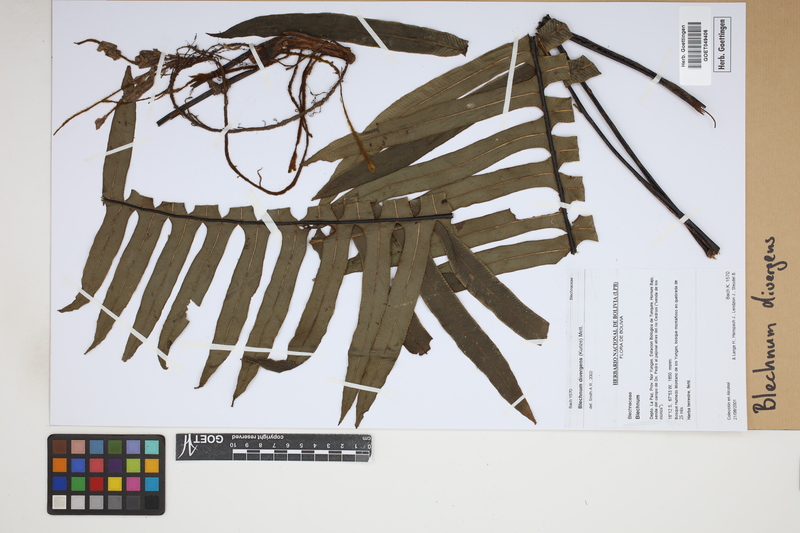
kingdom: Plantae
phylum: Tracheophyta
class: Polypodiopsida
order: Polypodiales
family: Blechnaceae
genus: Austroblechnum
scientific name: Austroblechnum divergens
